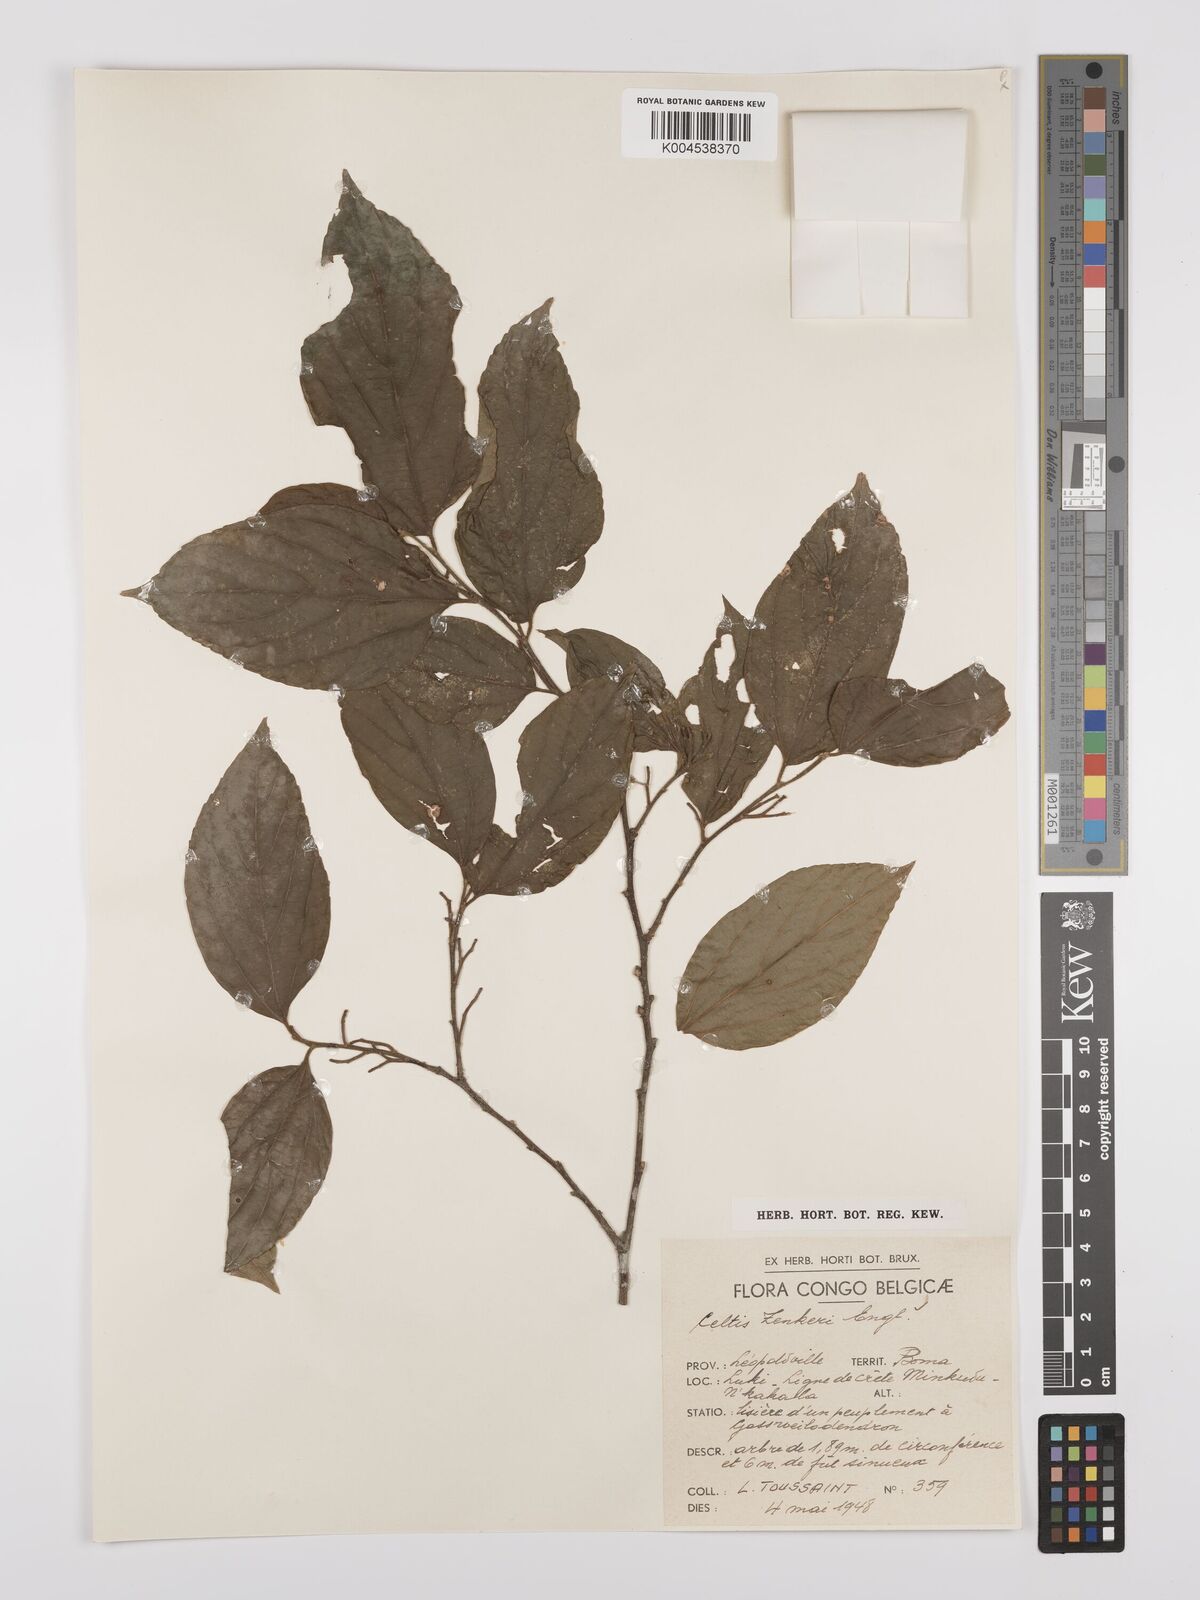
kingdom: Plantae
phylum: Tracheophyta
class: Magnoliopsida
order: Rosales
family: Cannabaceae
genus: Celtis
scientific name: Celtis zenkeri
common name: African celtis
